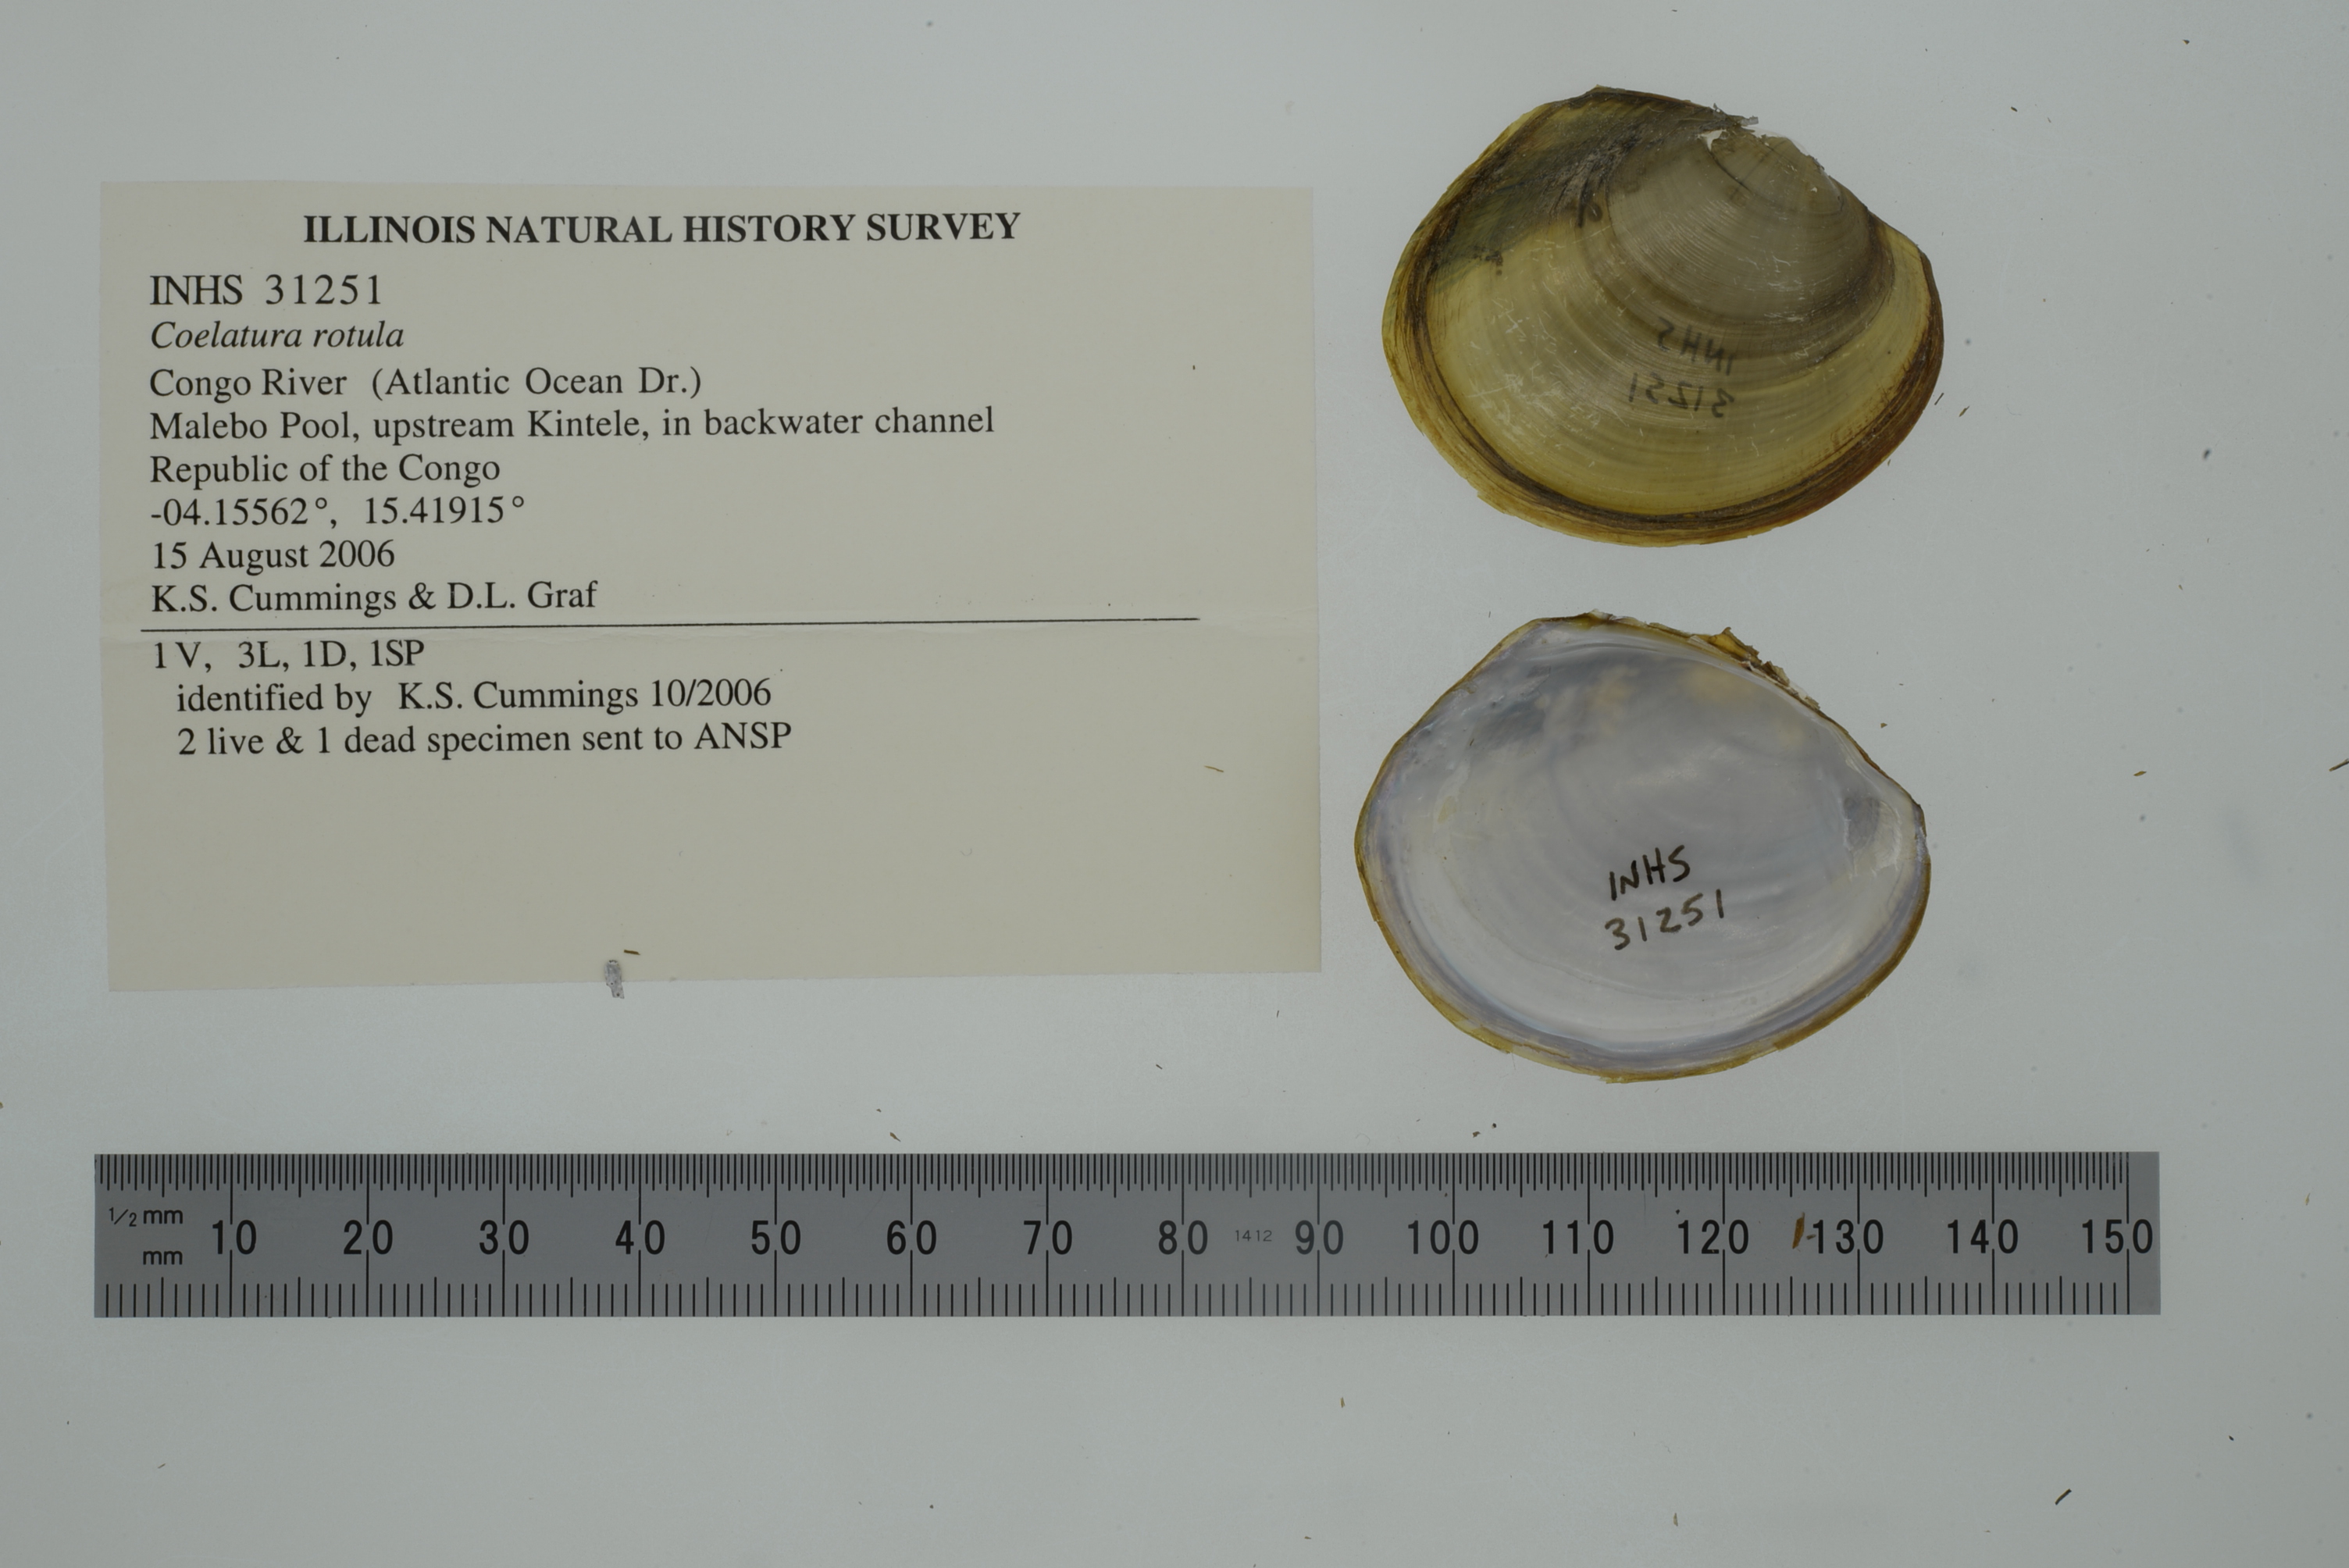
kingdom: Animalia
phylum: Mollusca
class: Bivalvia
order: Unionida
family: Unionidae
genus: Coelatura
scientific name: Coelatura disciformis
